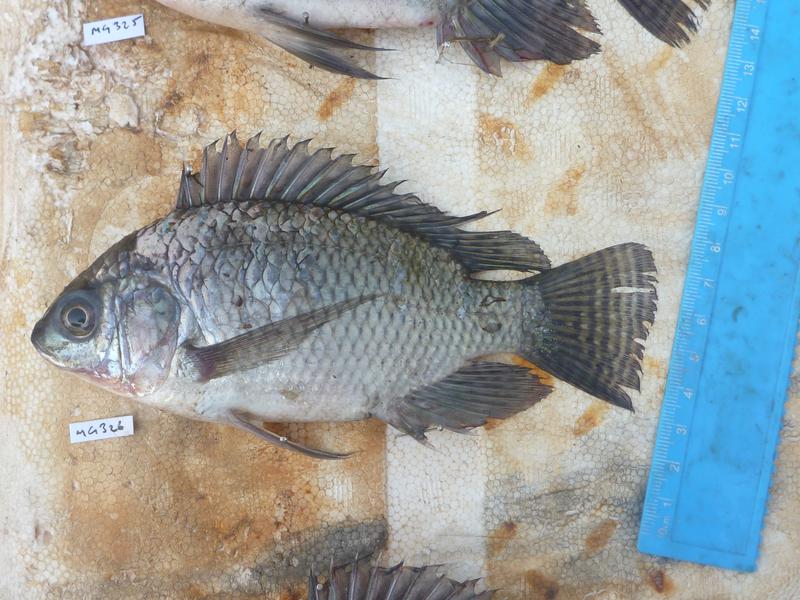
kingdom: Animalia
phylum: Chordata
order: Perciformes
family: Cichlidae
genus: Oreochromis
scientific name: Oreochromis niloticus
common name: Nile tilapia
